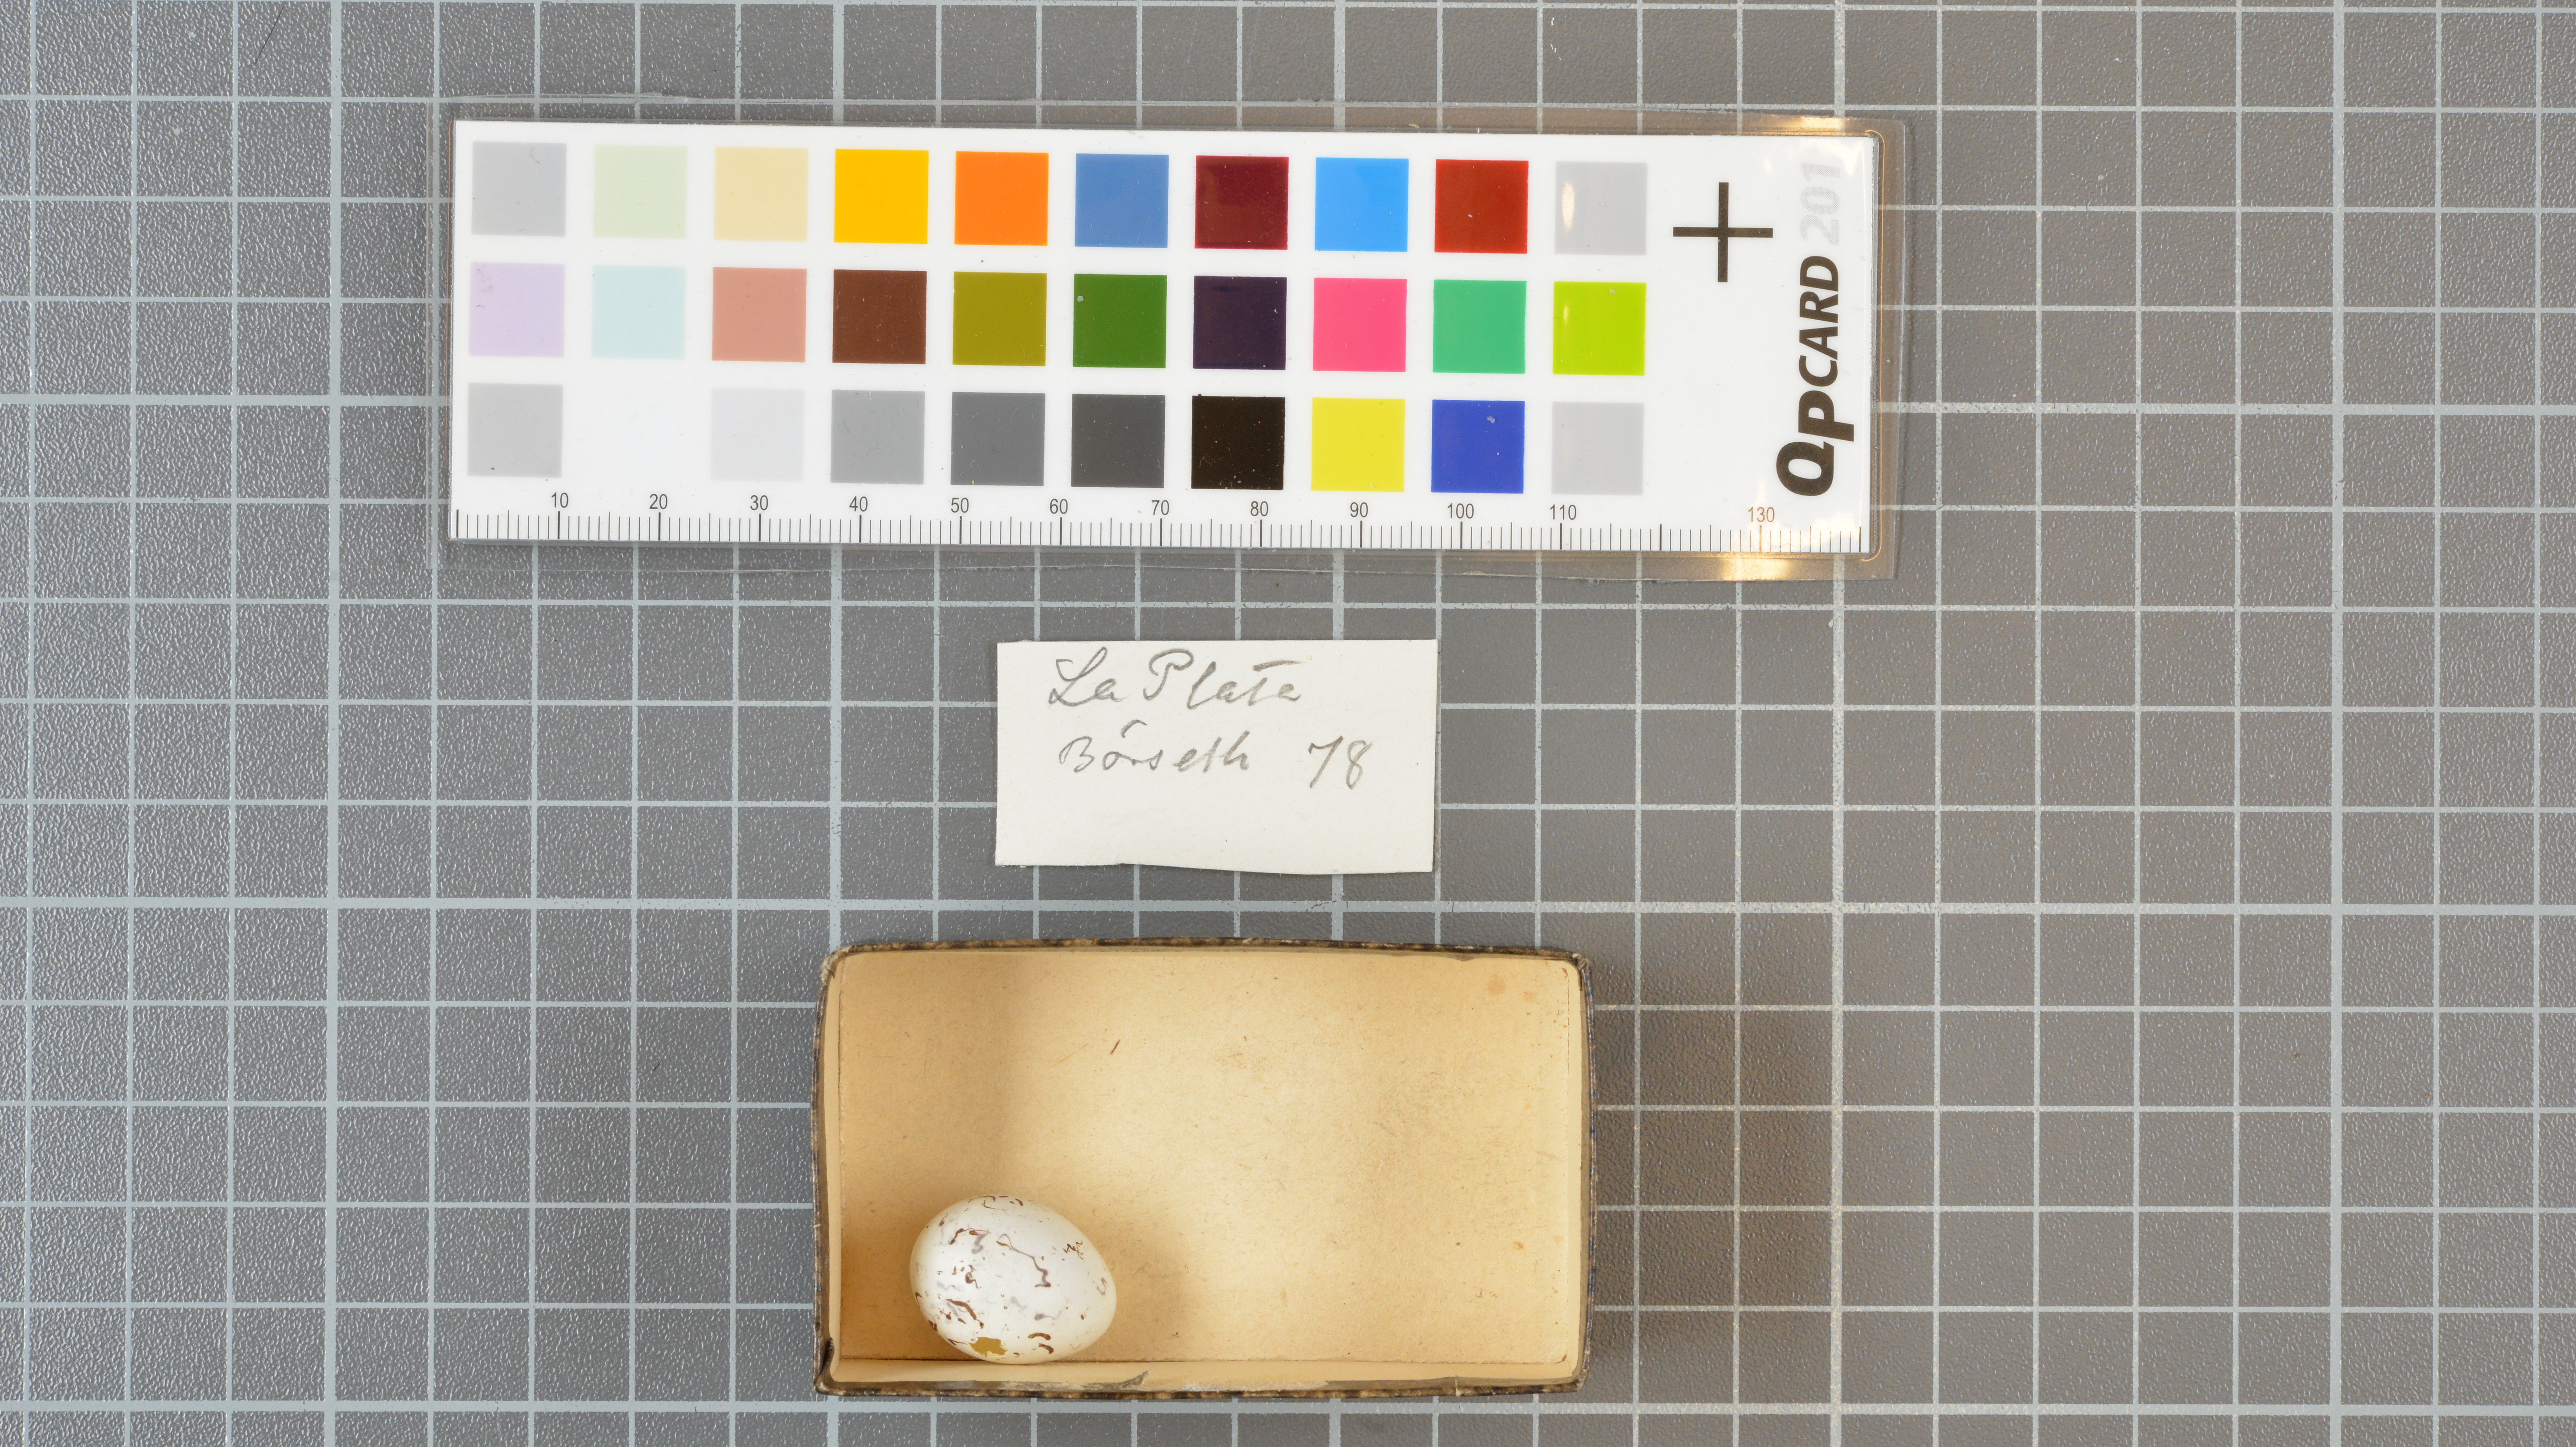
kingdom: Animalia
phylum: Chordata
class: Aves
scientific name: Aves
